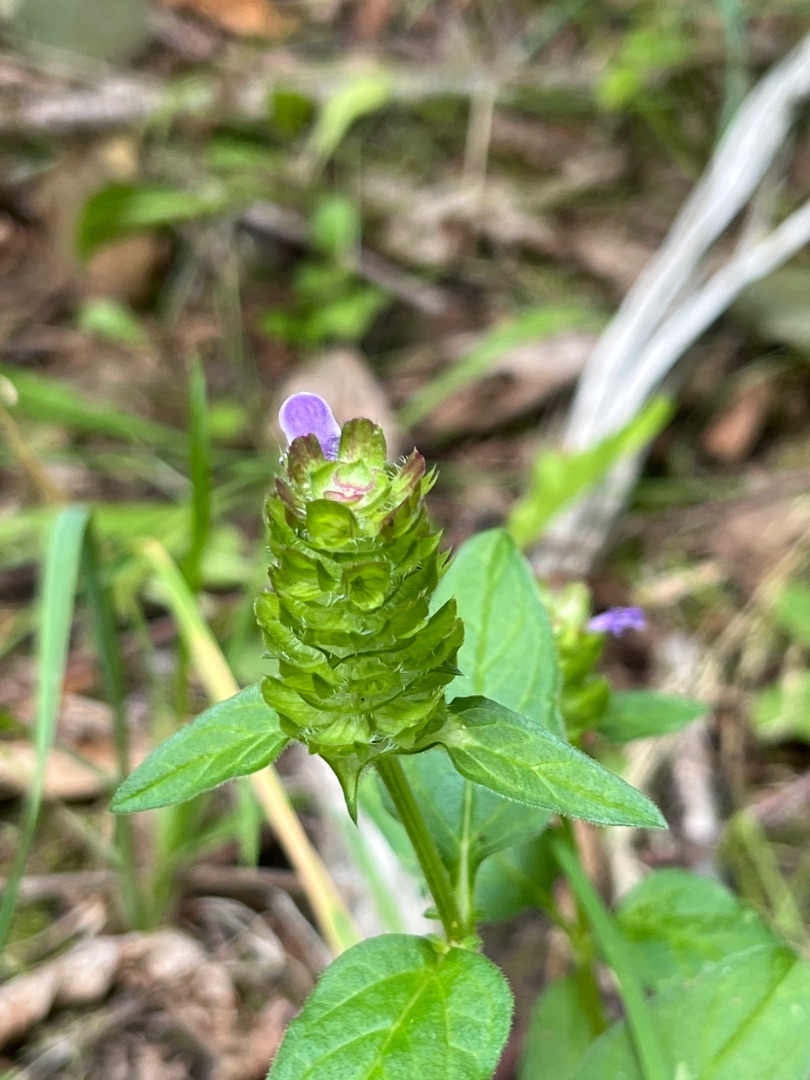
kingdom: Plantae
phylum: Tracheophyta
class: Magnoliopsida
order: Lamiales
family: Lamiaceae
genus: Prunella
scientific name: Prunella vulgaris
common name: Almindelig brunelle
